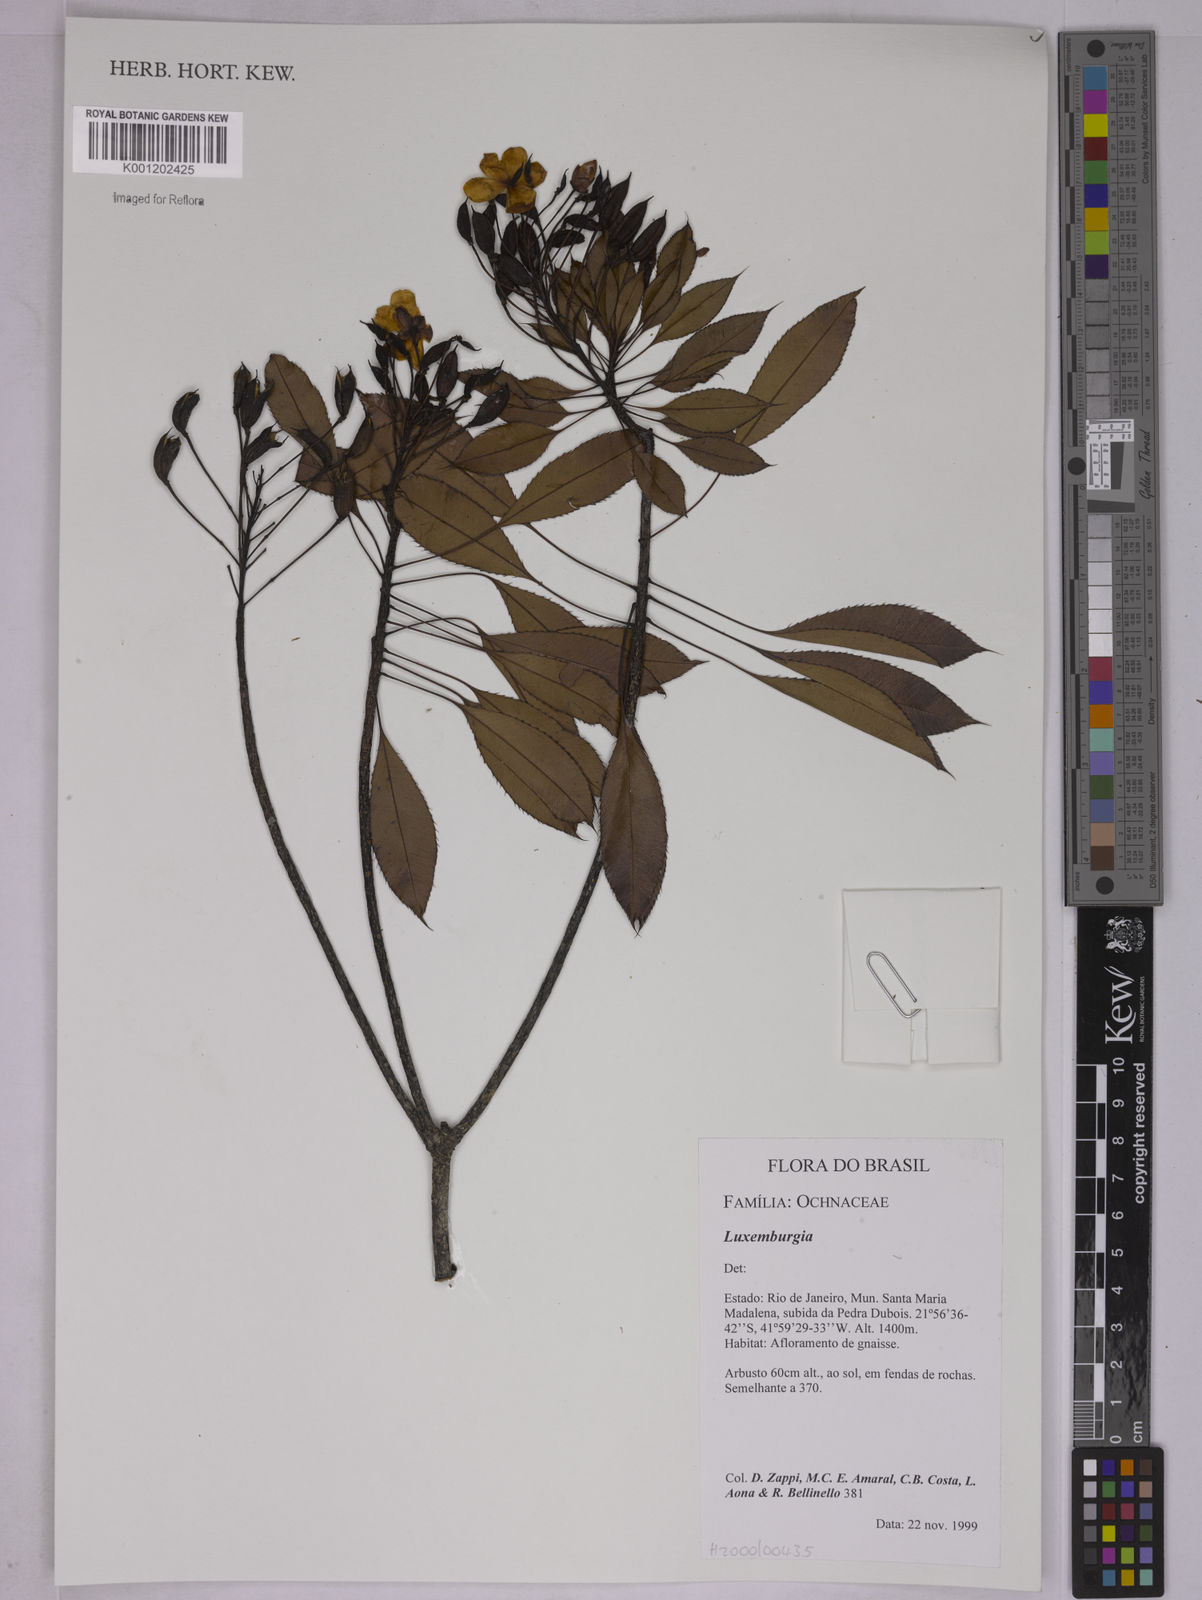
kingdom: Plantae
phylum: Tracheophyta
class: Magnoliopsida
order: Malpighiales
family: Ochnaceae
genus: Luxemburgia
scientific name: Luxemburgia
